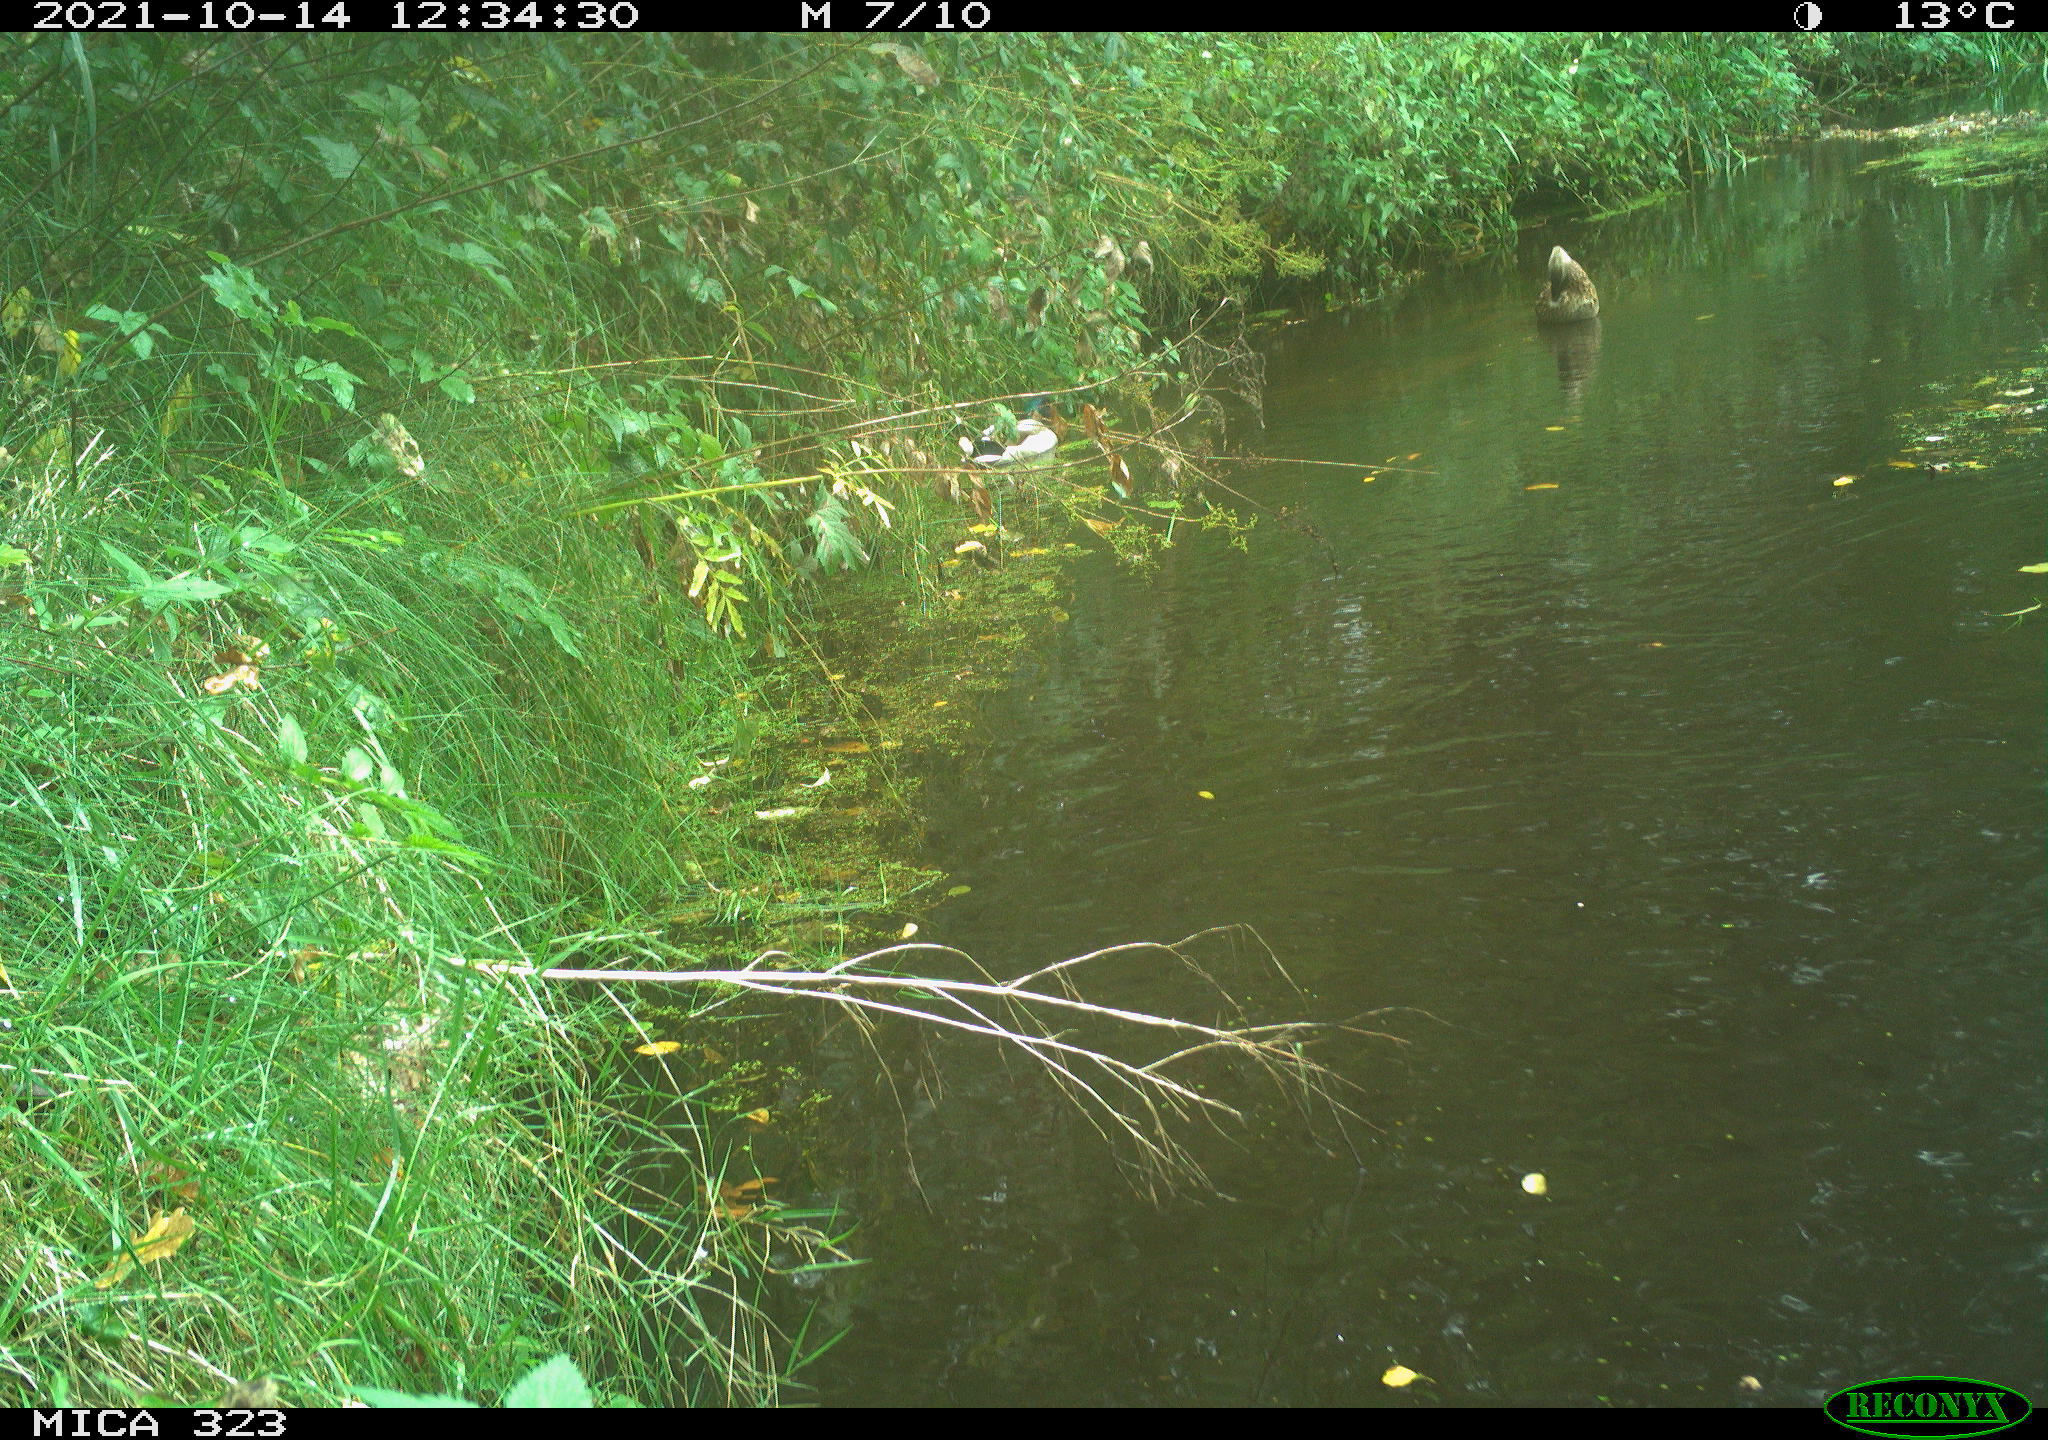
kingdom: Animalia
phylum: Chordata
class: Aves
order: Anseriformes
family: Anatidae
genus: Anas
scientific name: Anas platyrhynchos
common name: Mallard
